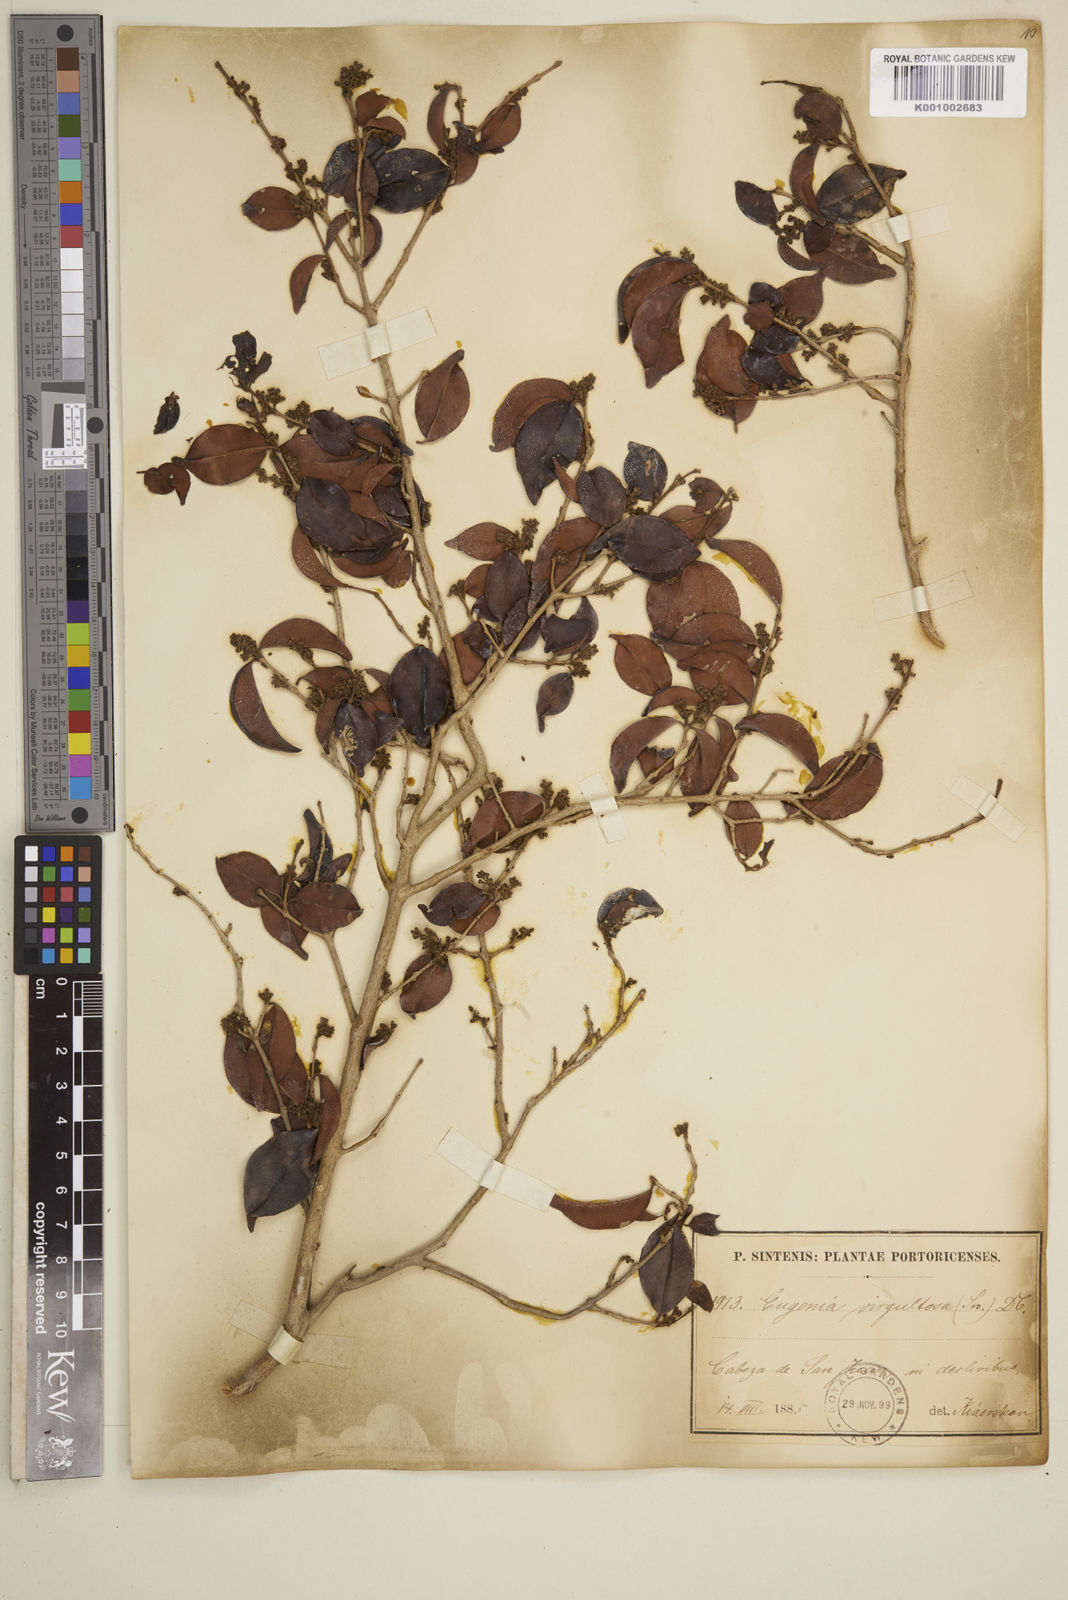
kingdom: Plantae
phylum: Tracheophyta
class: Magnoliopsida
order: Myrtales
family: Myrtaceae
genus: Eugenia
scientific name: Eugenia biflora
